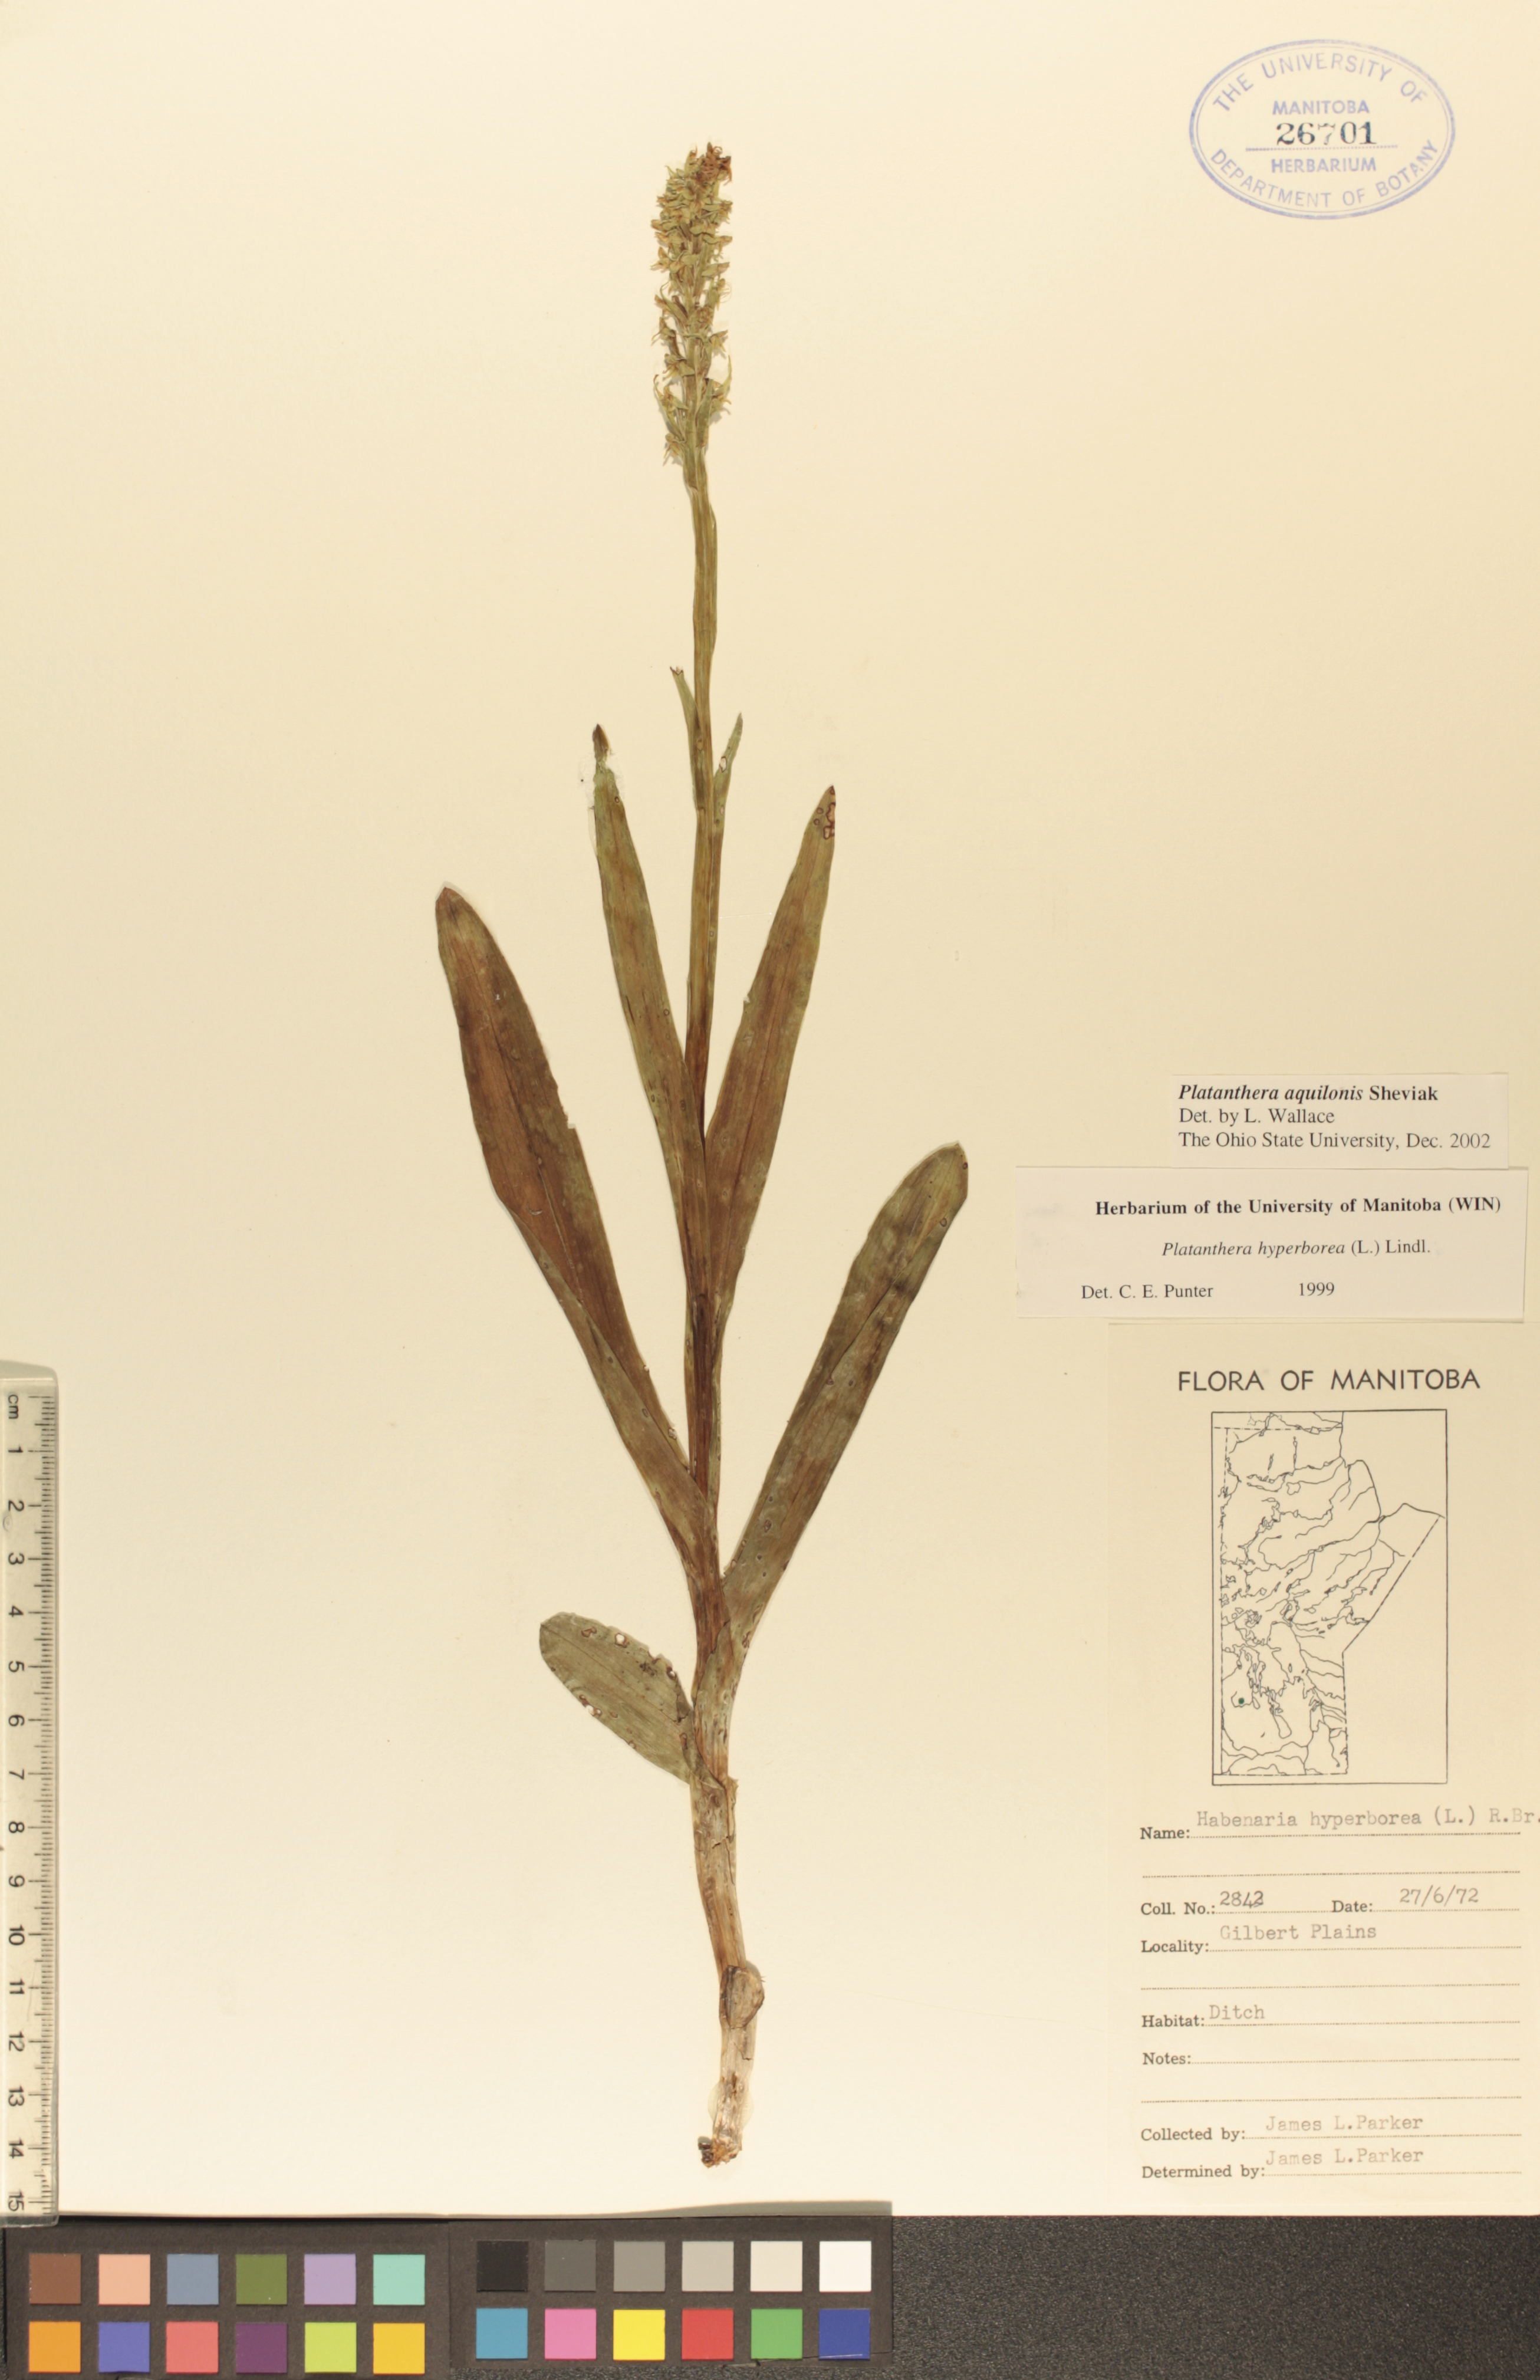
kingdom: Plantae
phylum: Tracheophyta
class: Liliopsida
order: Asparagales
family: Orchidaceae
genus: Platanthera
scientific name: Platanthera aquilonis
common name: Northern green orchid
